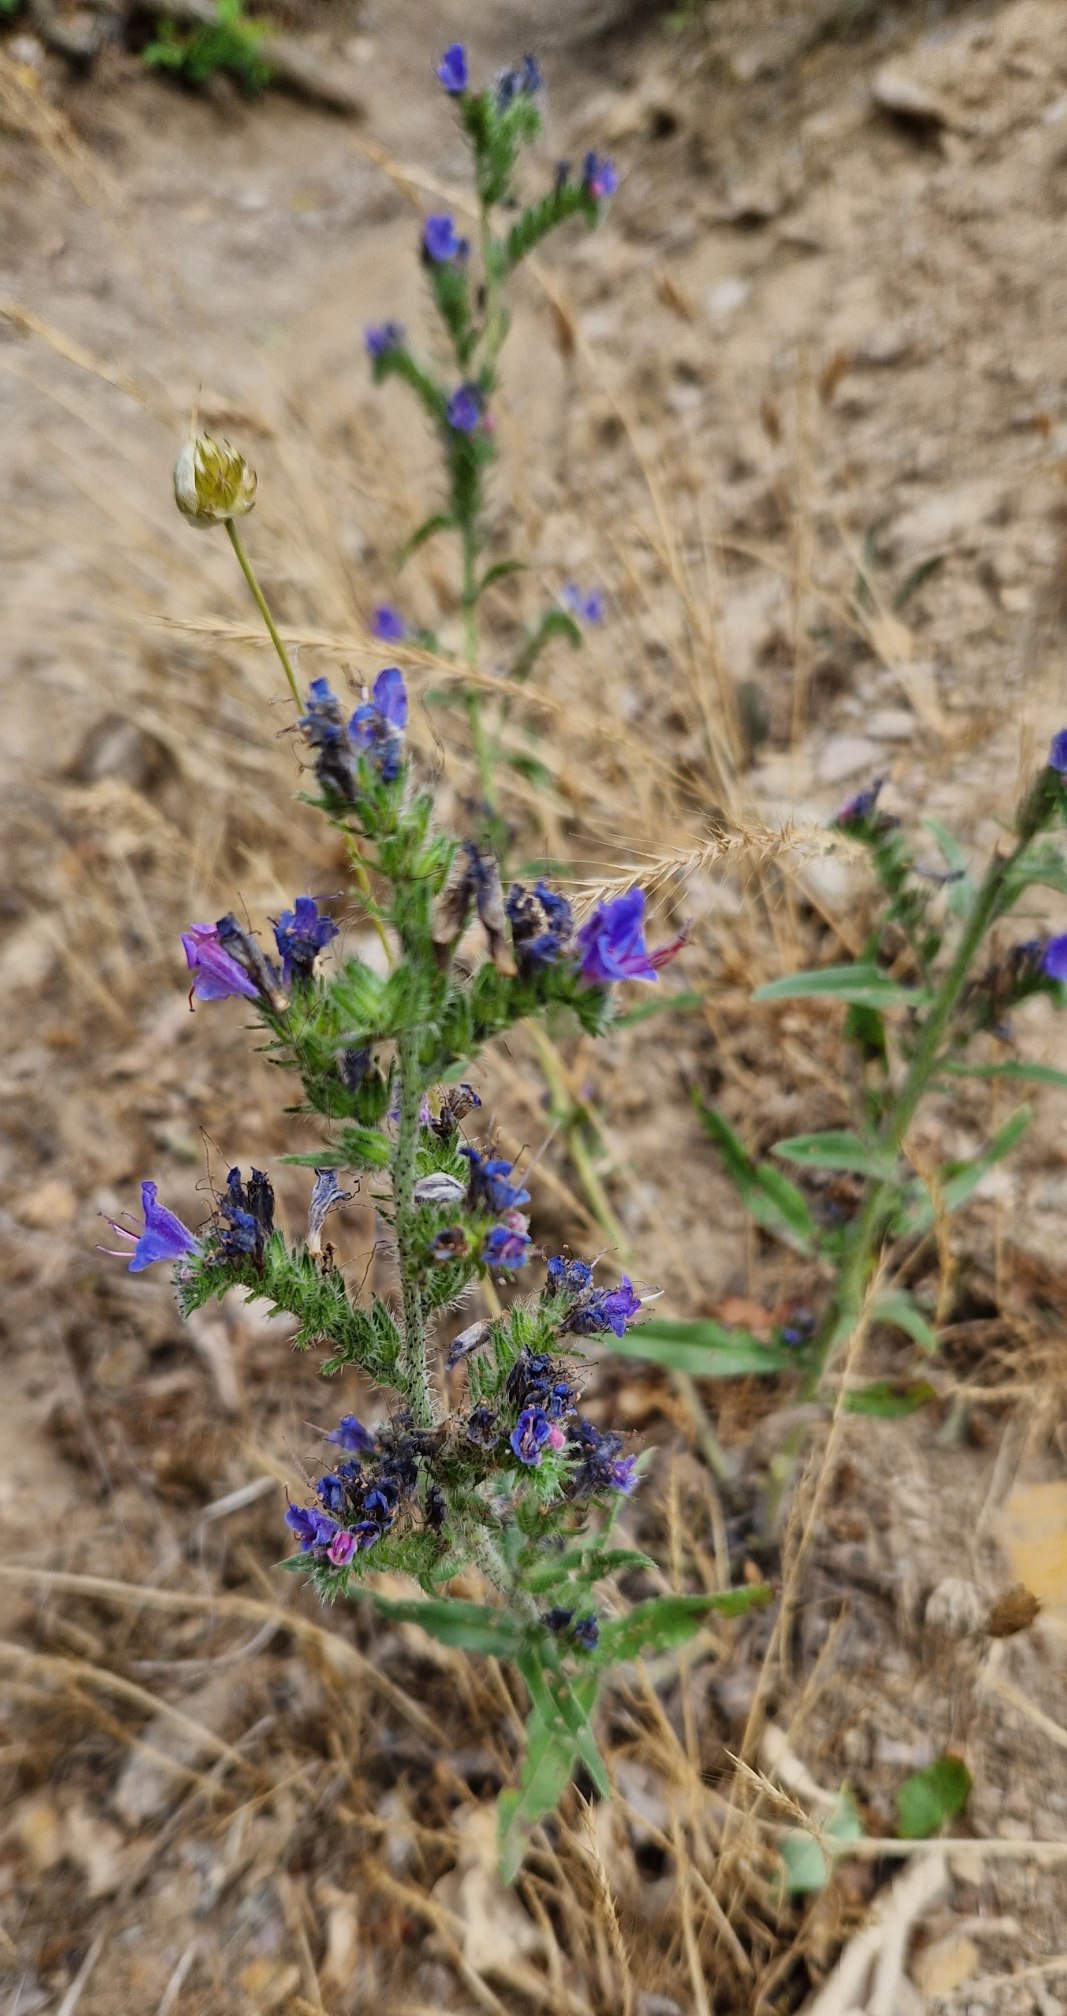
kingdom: Plantae
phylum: Tracheophyta
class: Magnoliopsida
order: Boraginales
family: Boraginaceae
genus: Echium
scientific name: Echium vulgare
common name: Slangehoved
